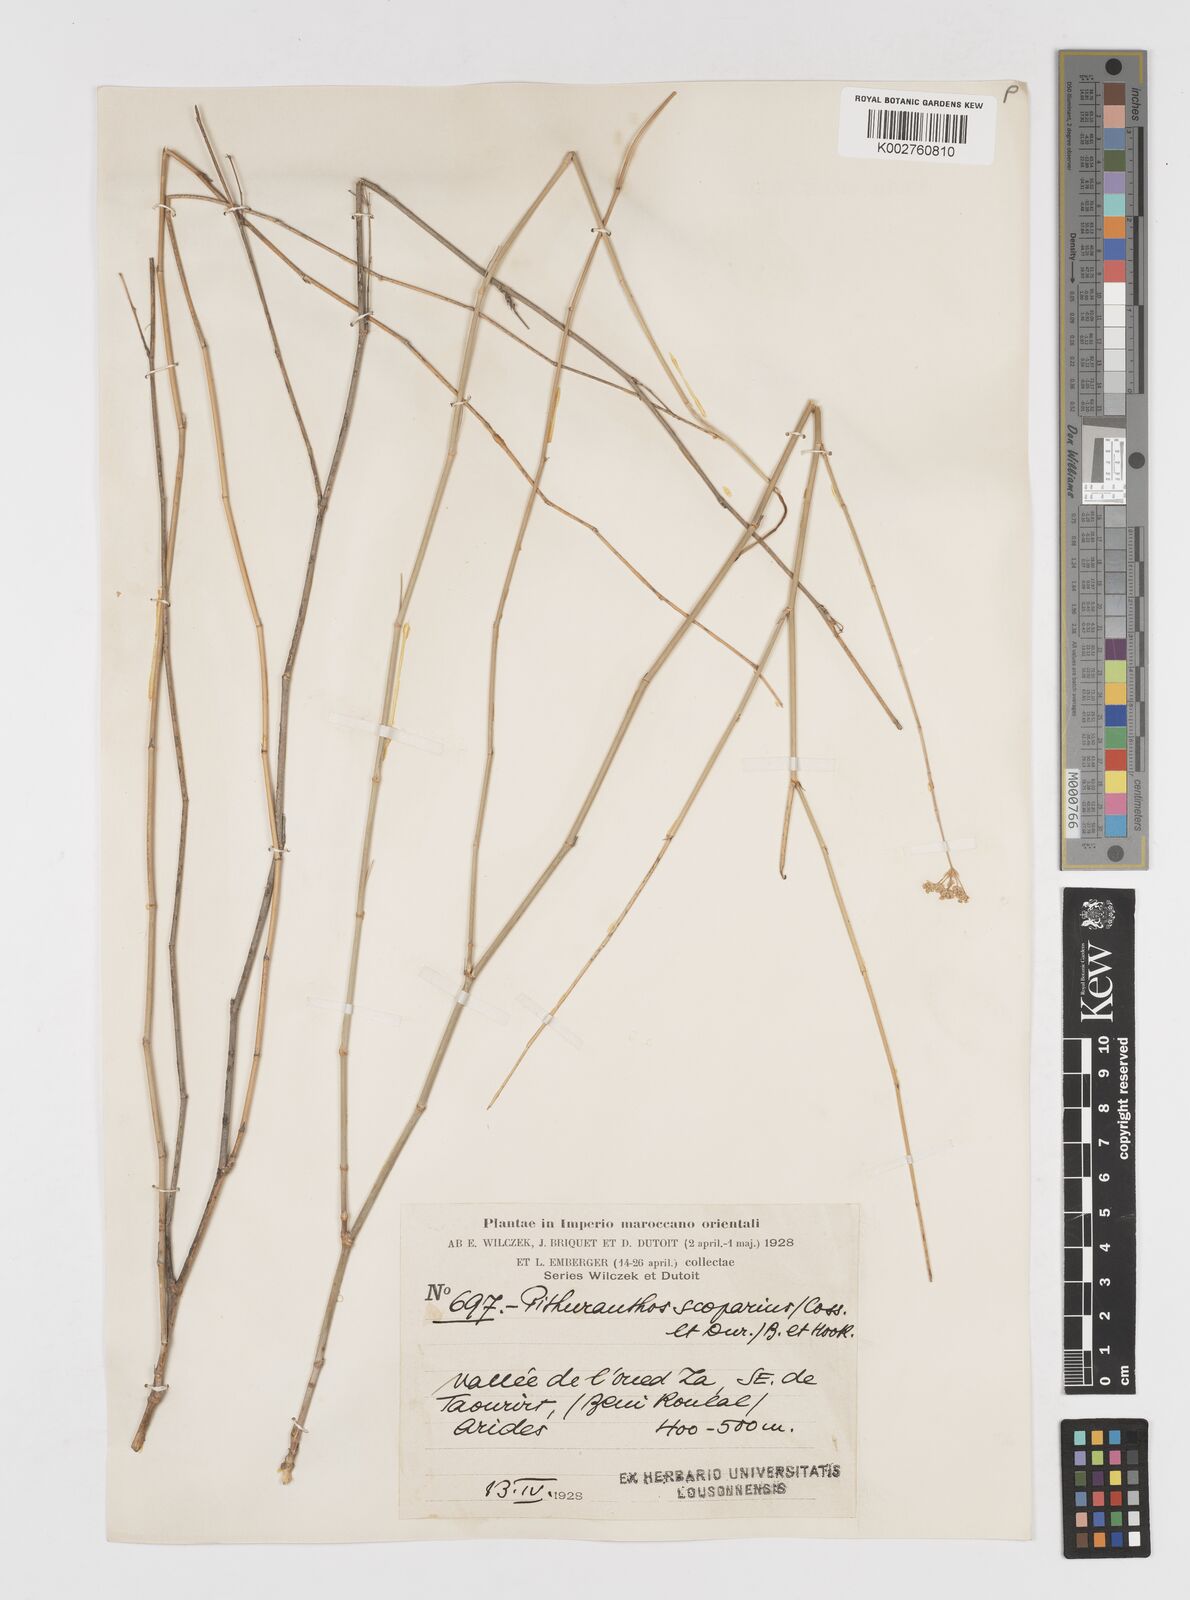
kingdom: Plantae
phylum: Tracheophyta
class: Magnoliopsida
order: Apiales
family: Apiaceae
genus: Deverra
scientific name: Deverra scoparia
